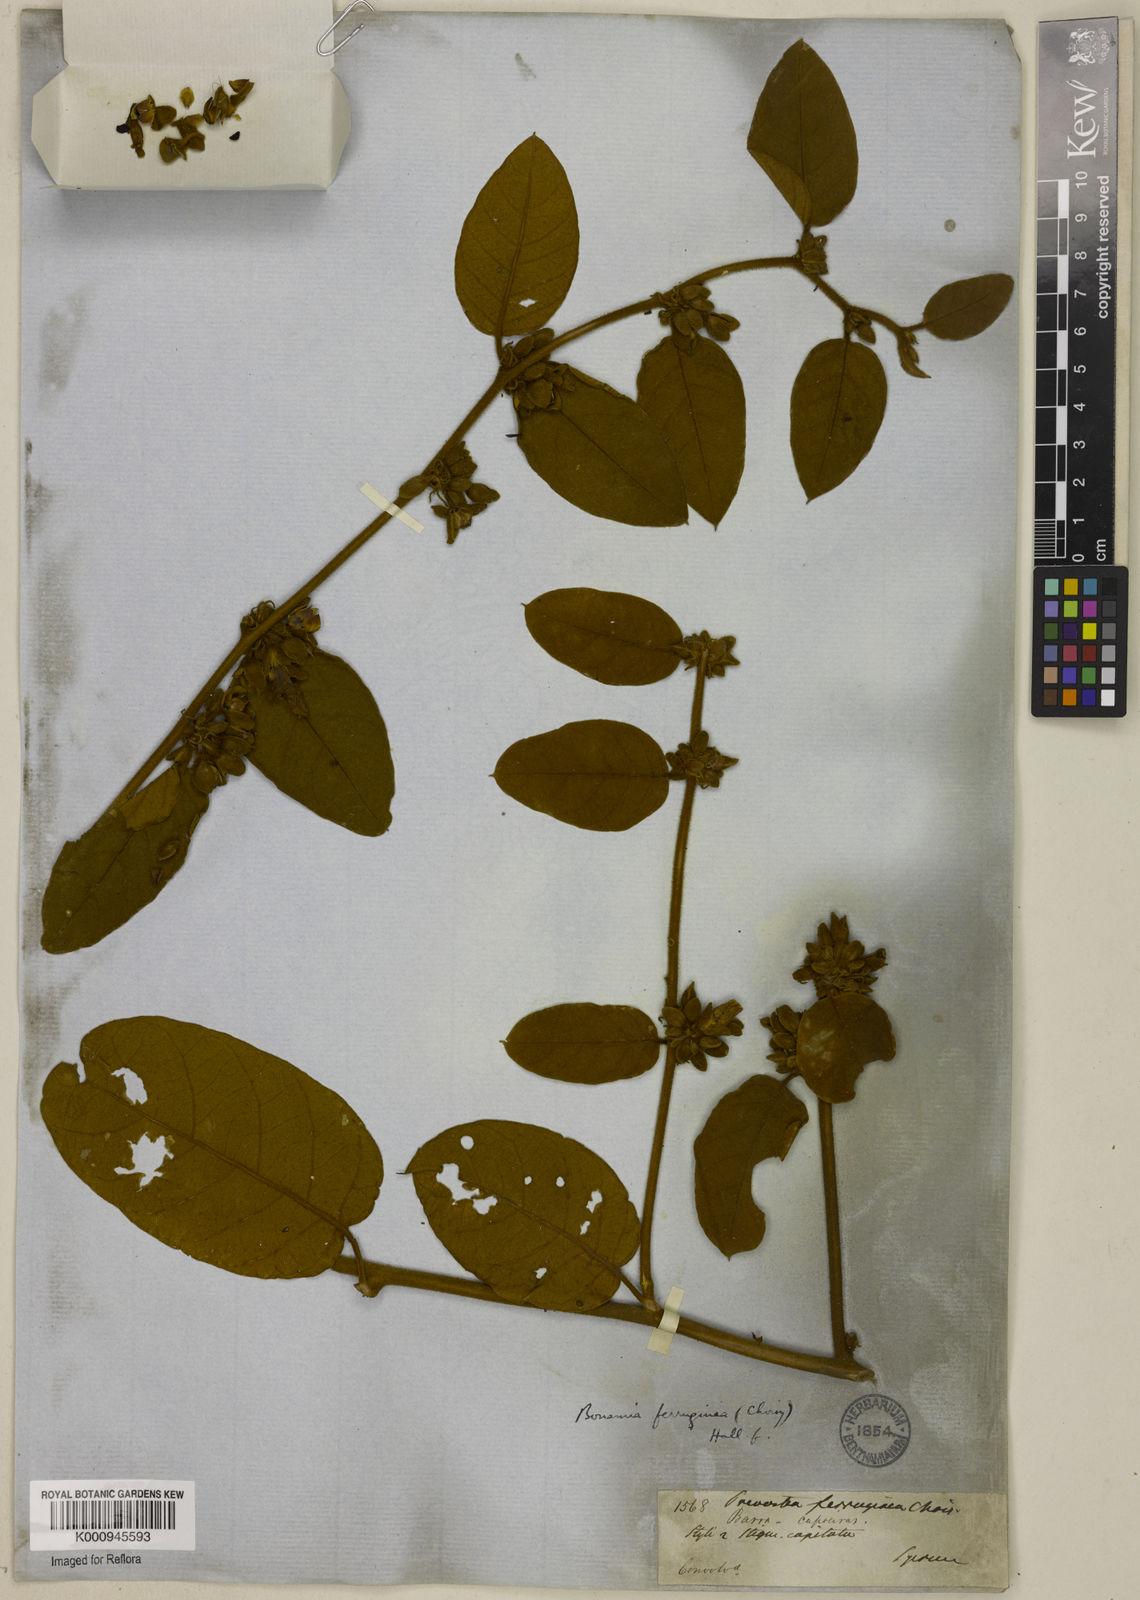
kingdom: Plantae
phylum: Tracheophyta
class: Magnoliopsida
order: Solanales
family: Convolvulaceae
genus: Bonamia
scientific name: Bonamia ferruginea
